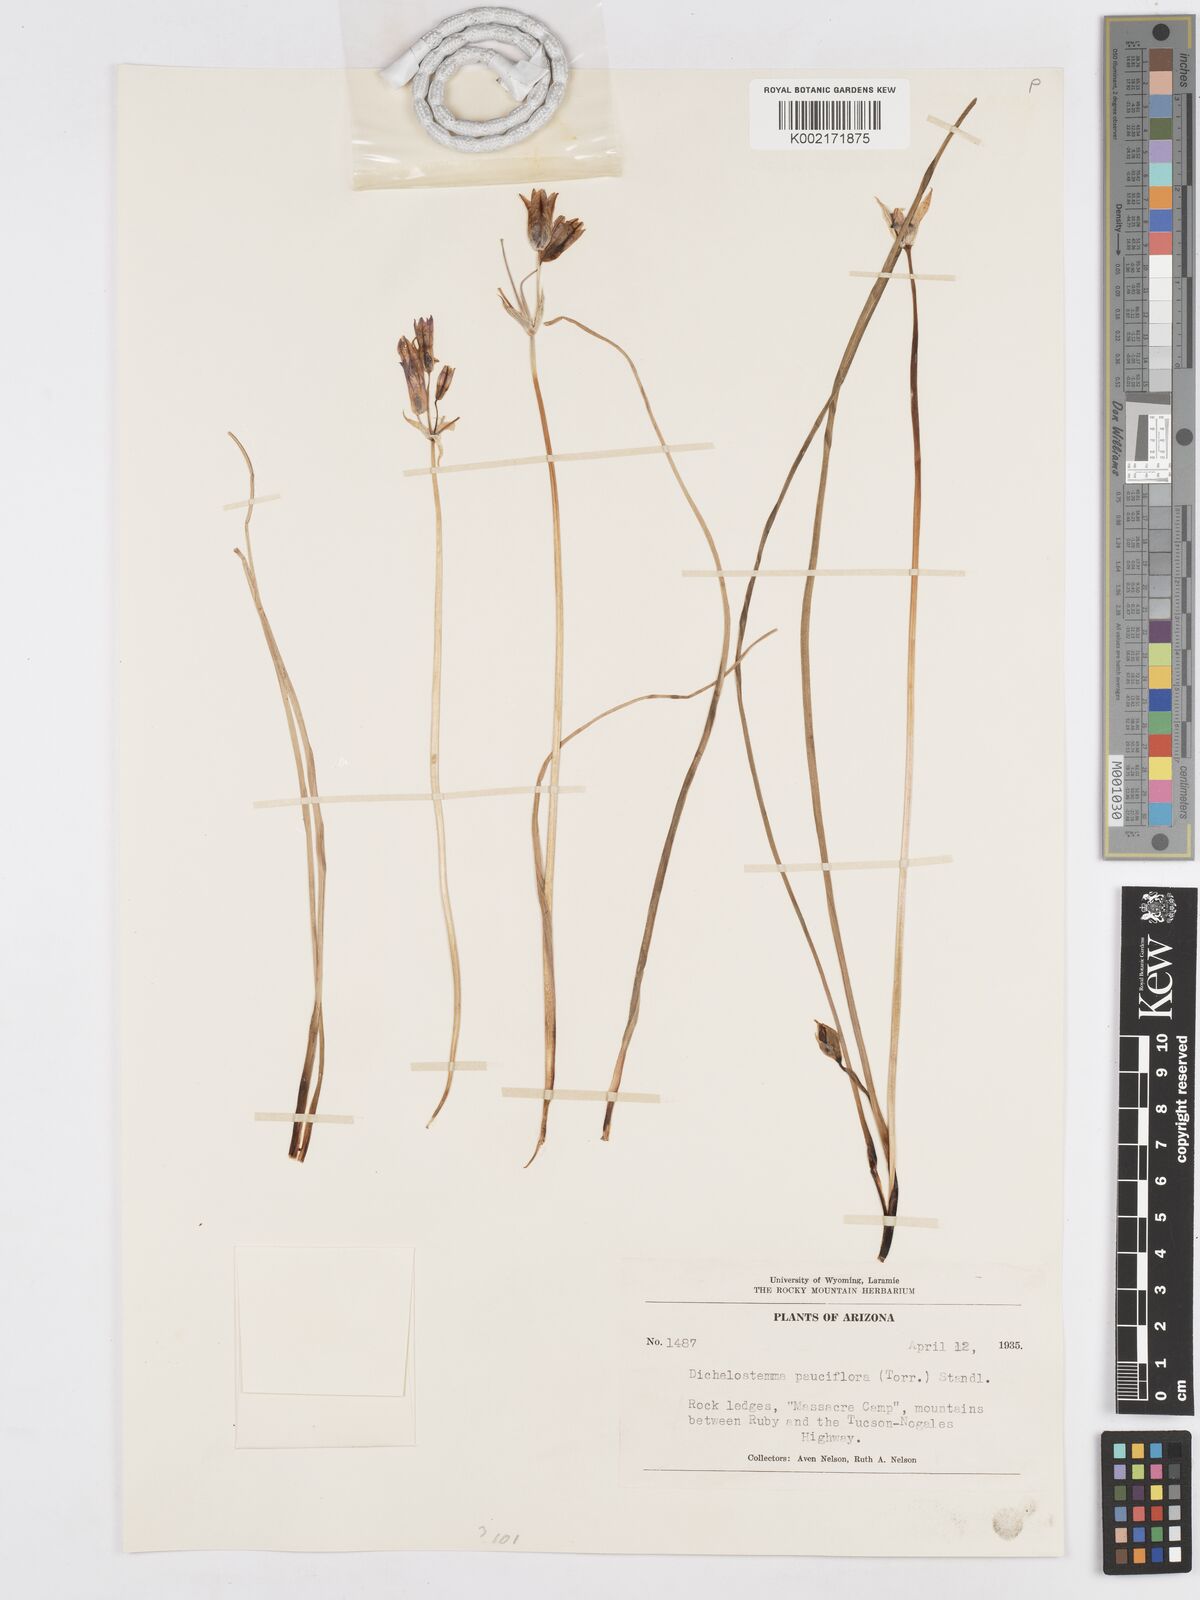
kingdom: Plantae
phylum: Tracheophyta
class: Liliopsida
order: Asparagales
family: Asparagaceae
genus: Dichelostemma
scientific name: Dichelostemma congestum
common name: Fork-tooth ookow
